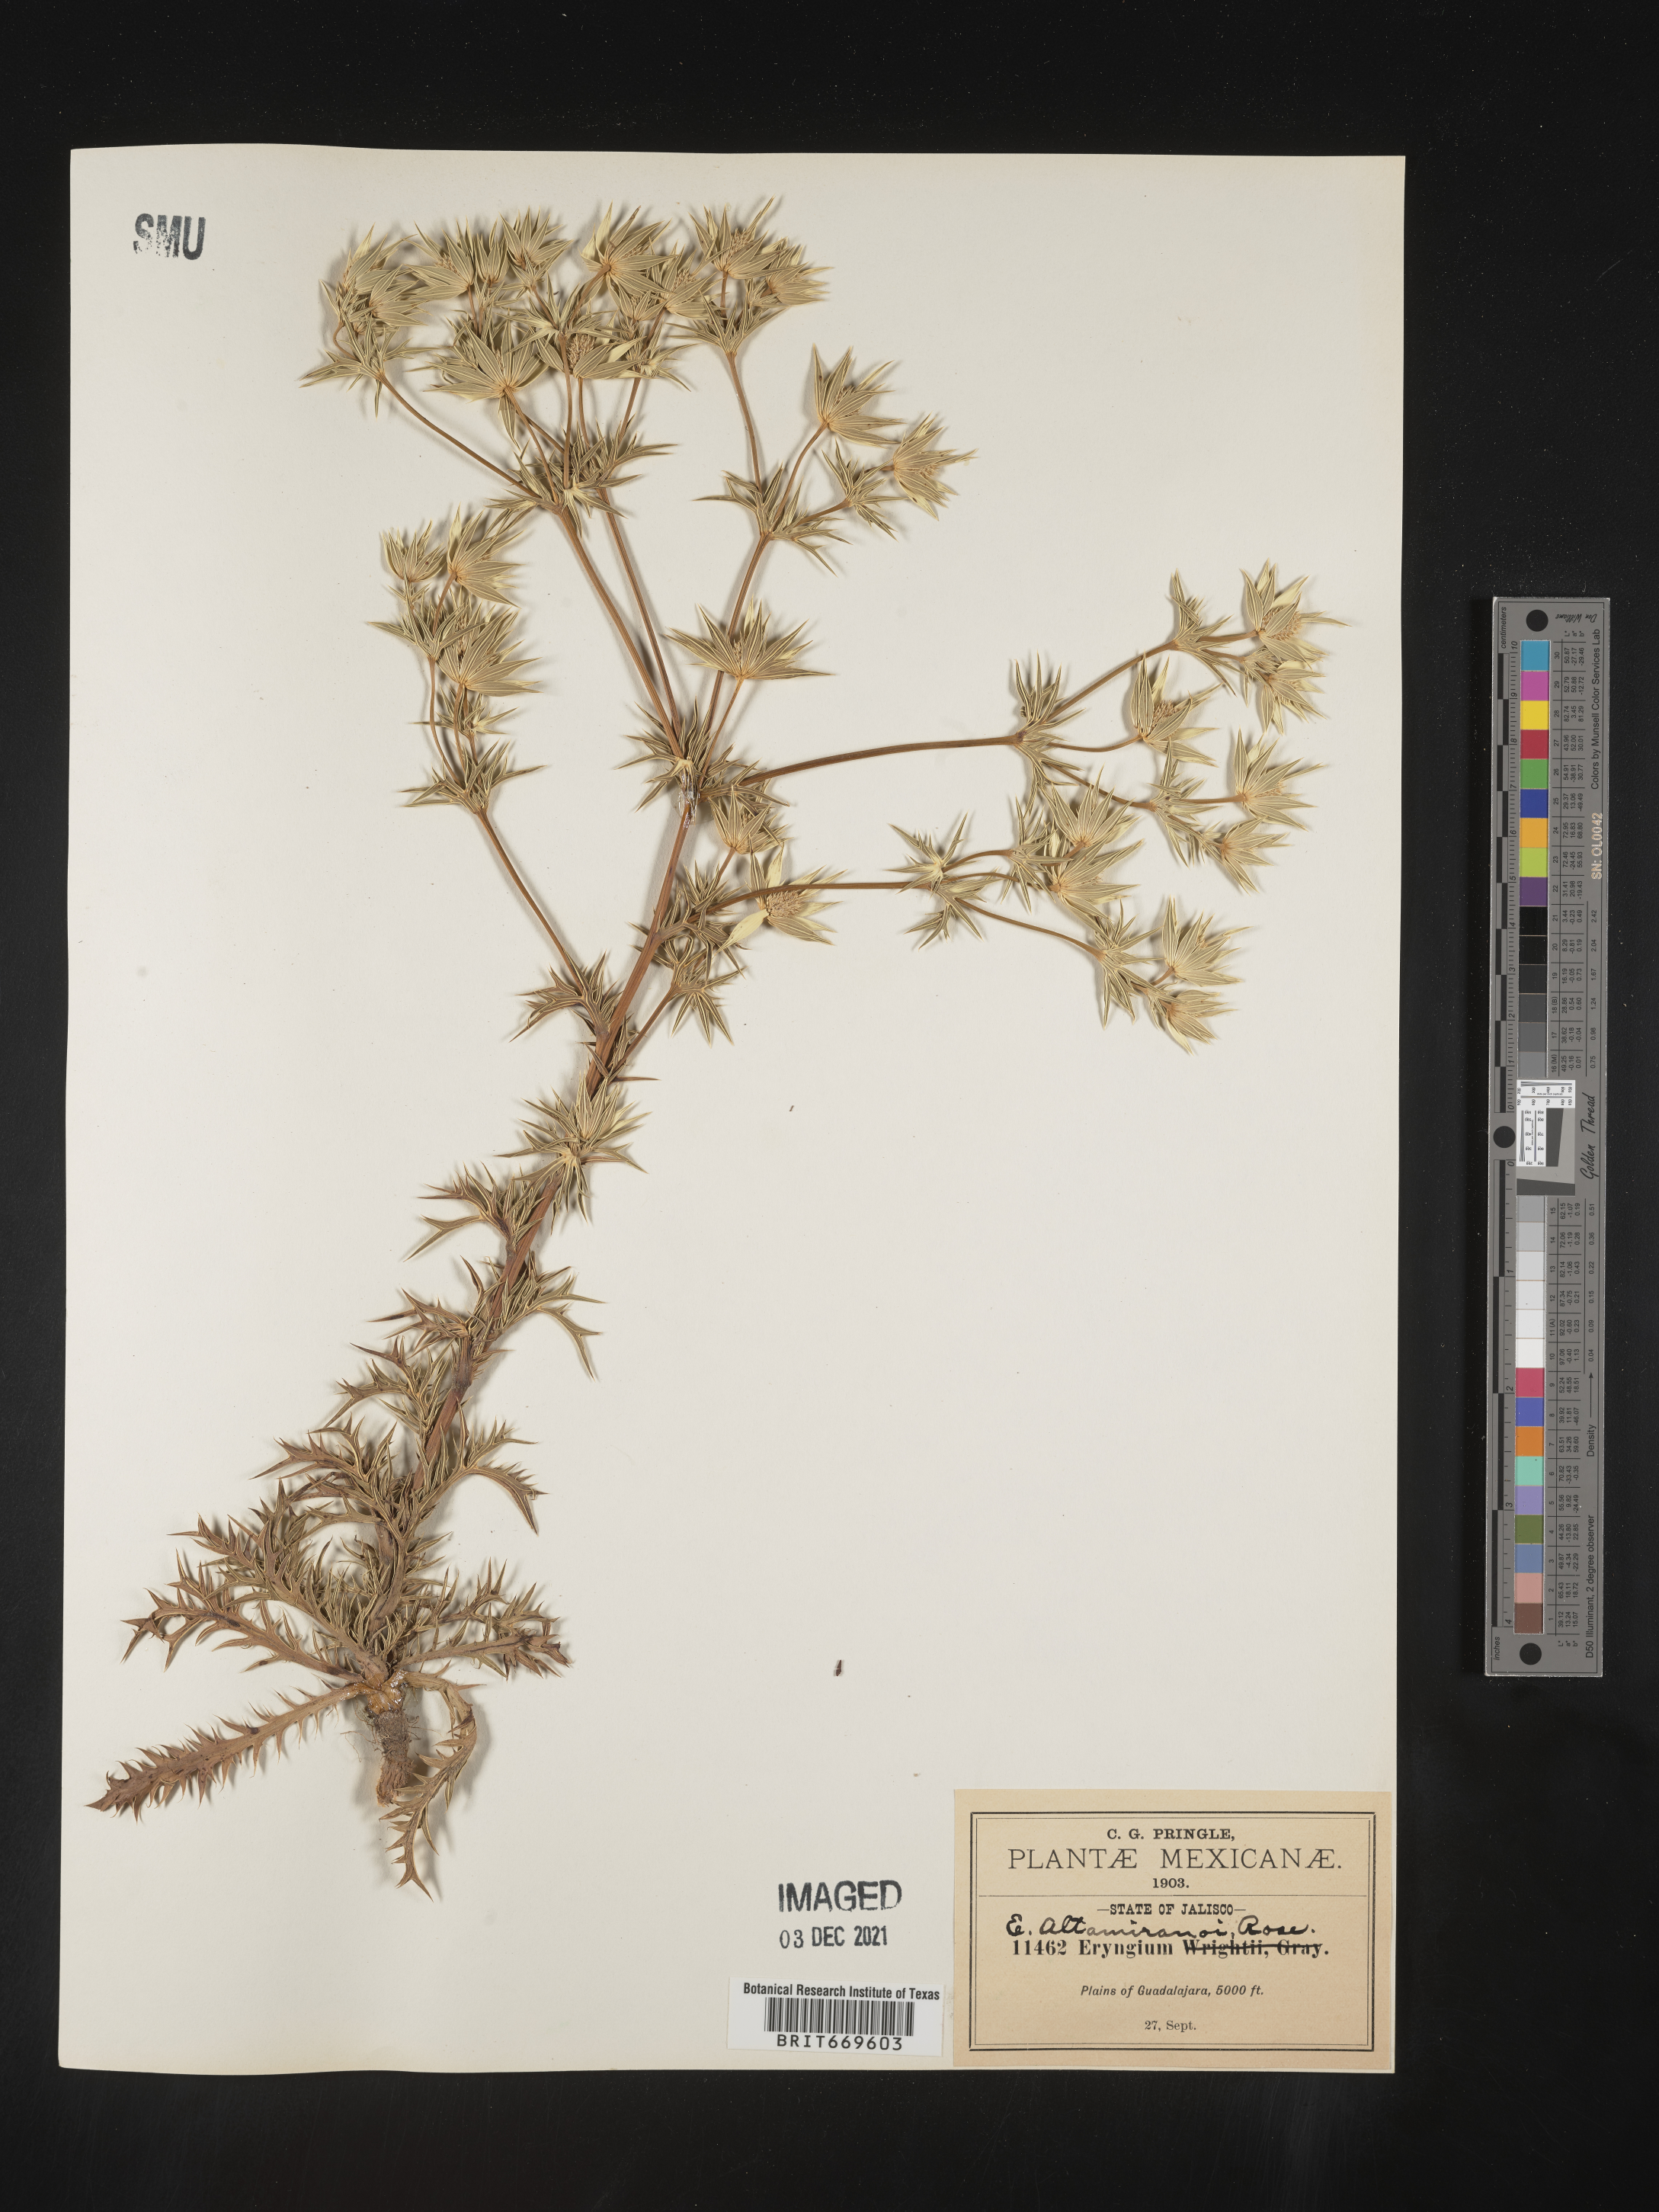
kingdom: Plantae
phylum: Tracheophyta
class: Magnoliopsida
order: Apiales
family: Apiaceae
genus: Eryngium
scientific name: Eryngium
